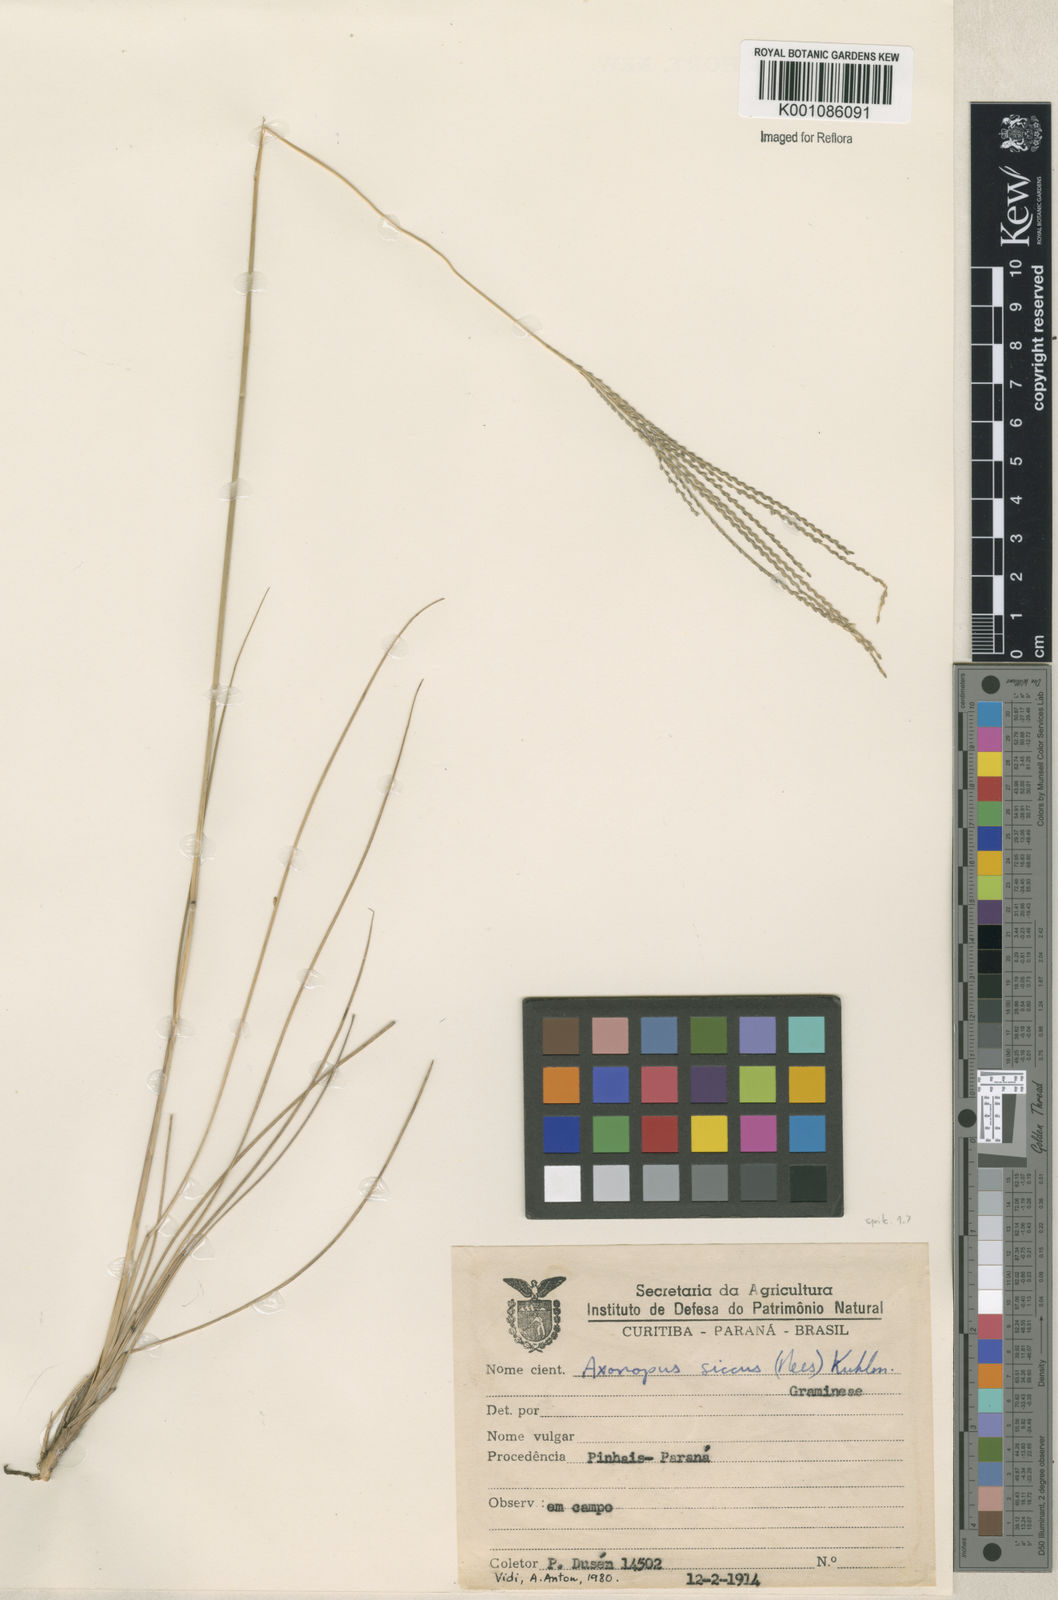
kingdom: Plantae
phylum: Tracheophyta
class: Liliopsida
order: Poales
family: Poaceae
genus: Axonopus
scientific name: Axonopus siccus
